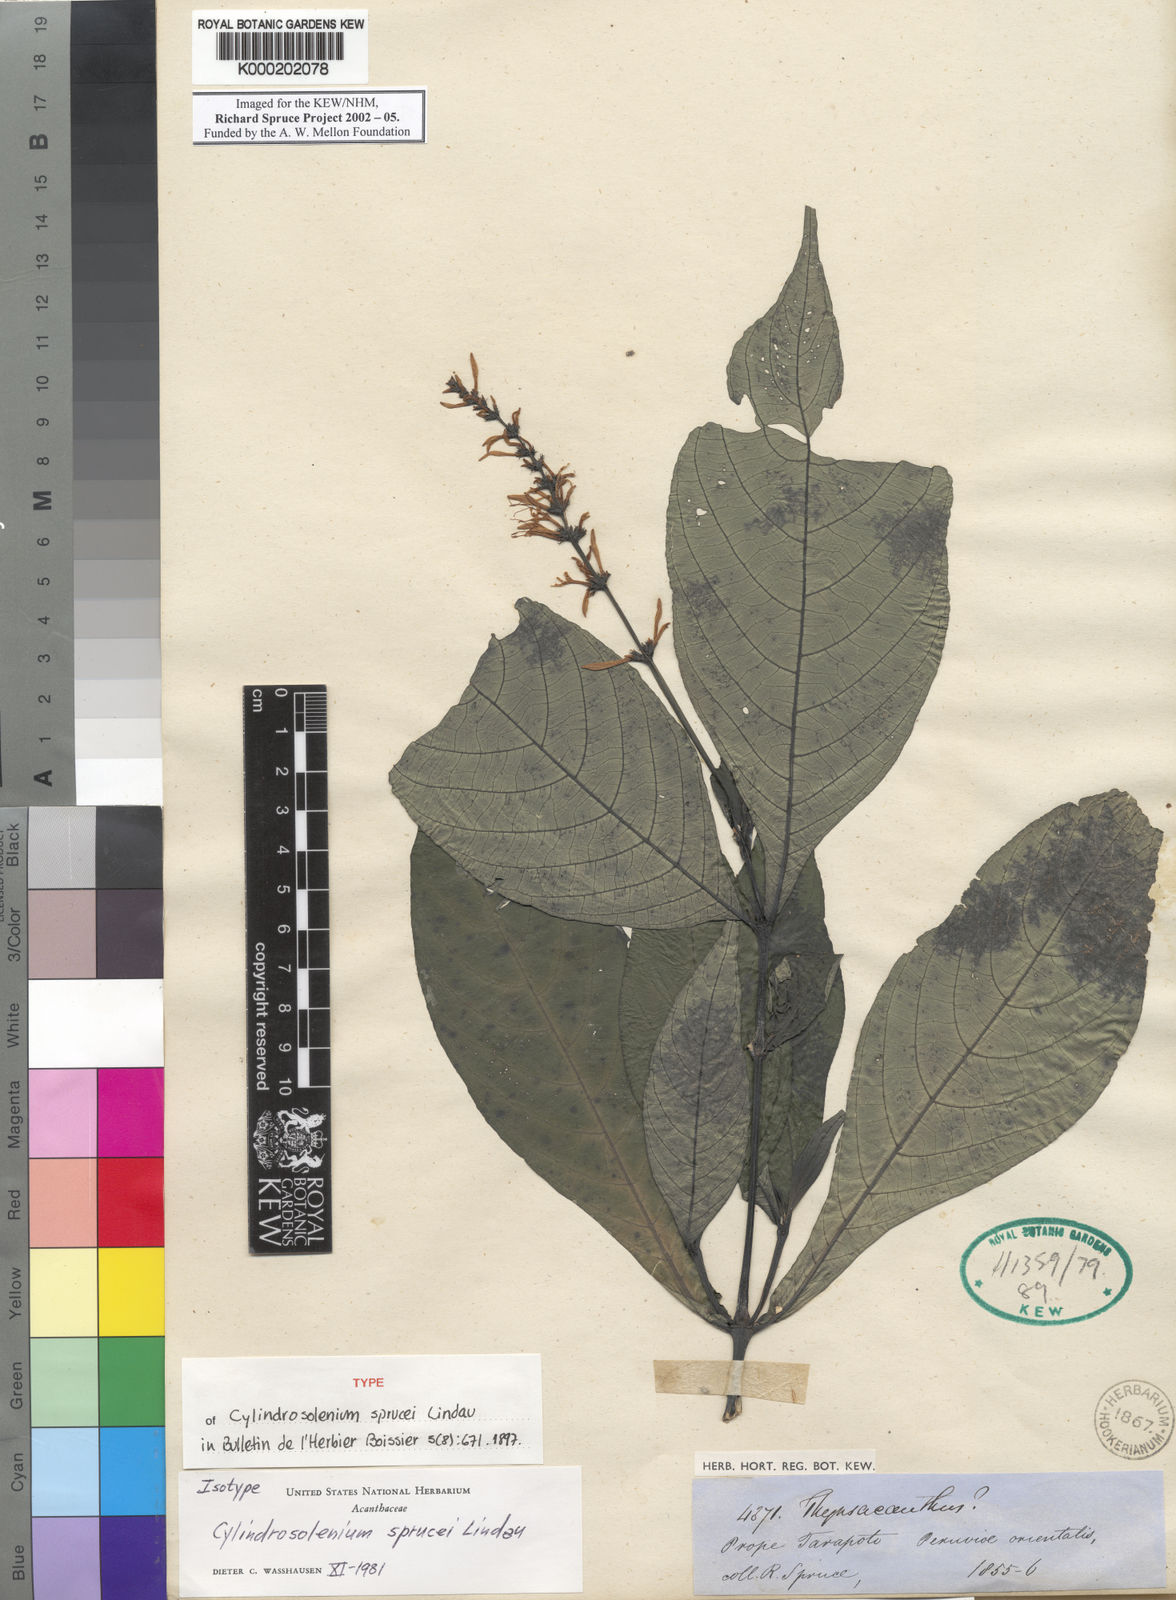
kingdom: Plantae
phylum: Tracheophyta
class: Magnoliopsida
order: Lamiales
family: Acanthaceae
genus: Stenostephanus
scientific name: Stenostephanus sprucei
